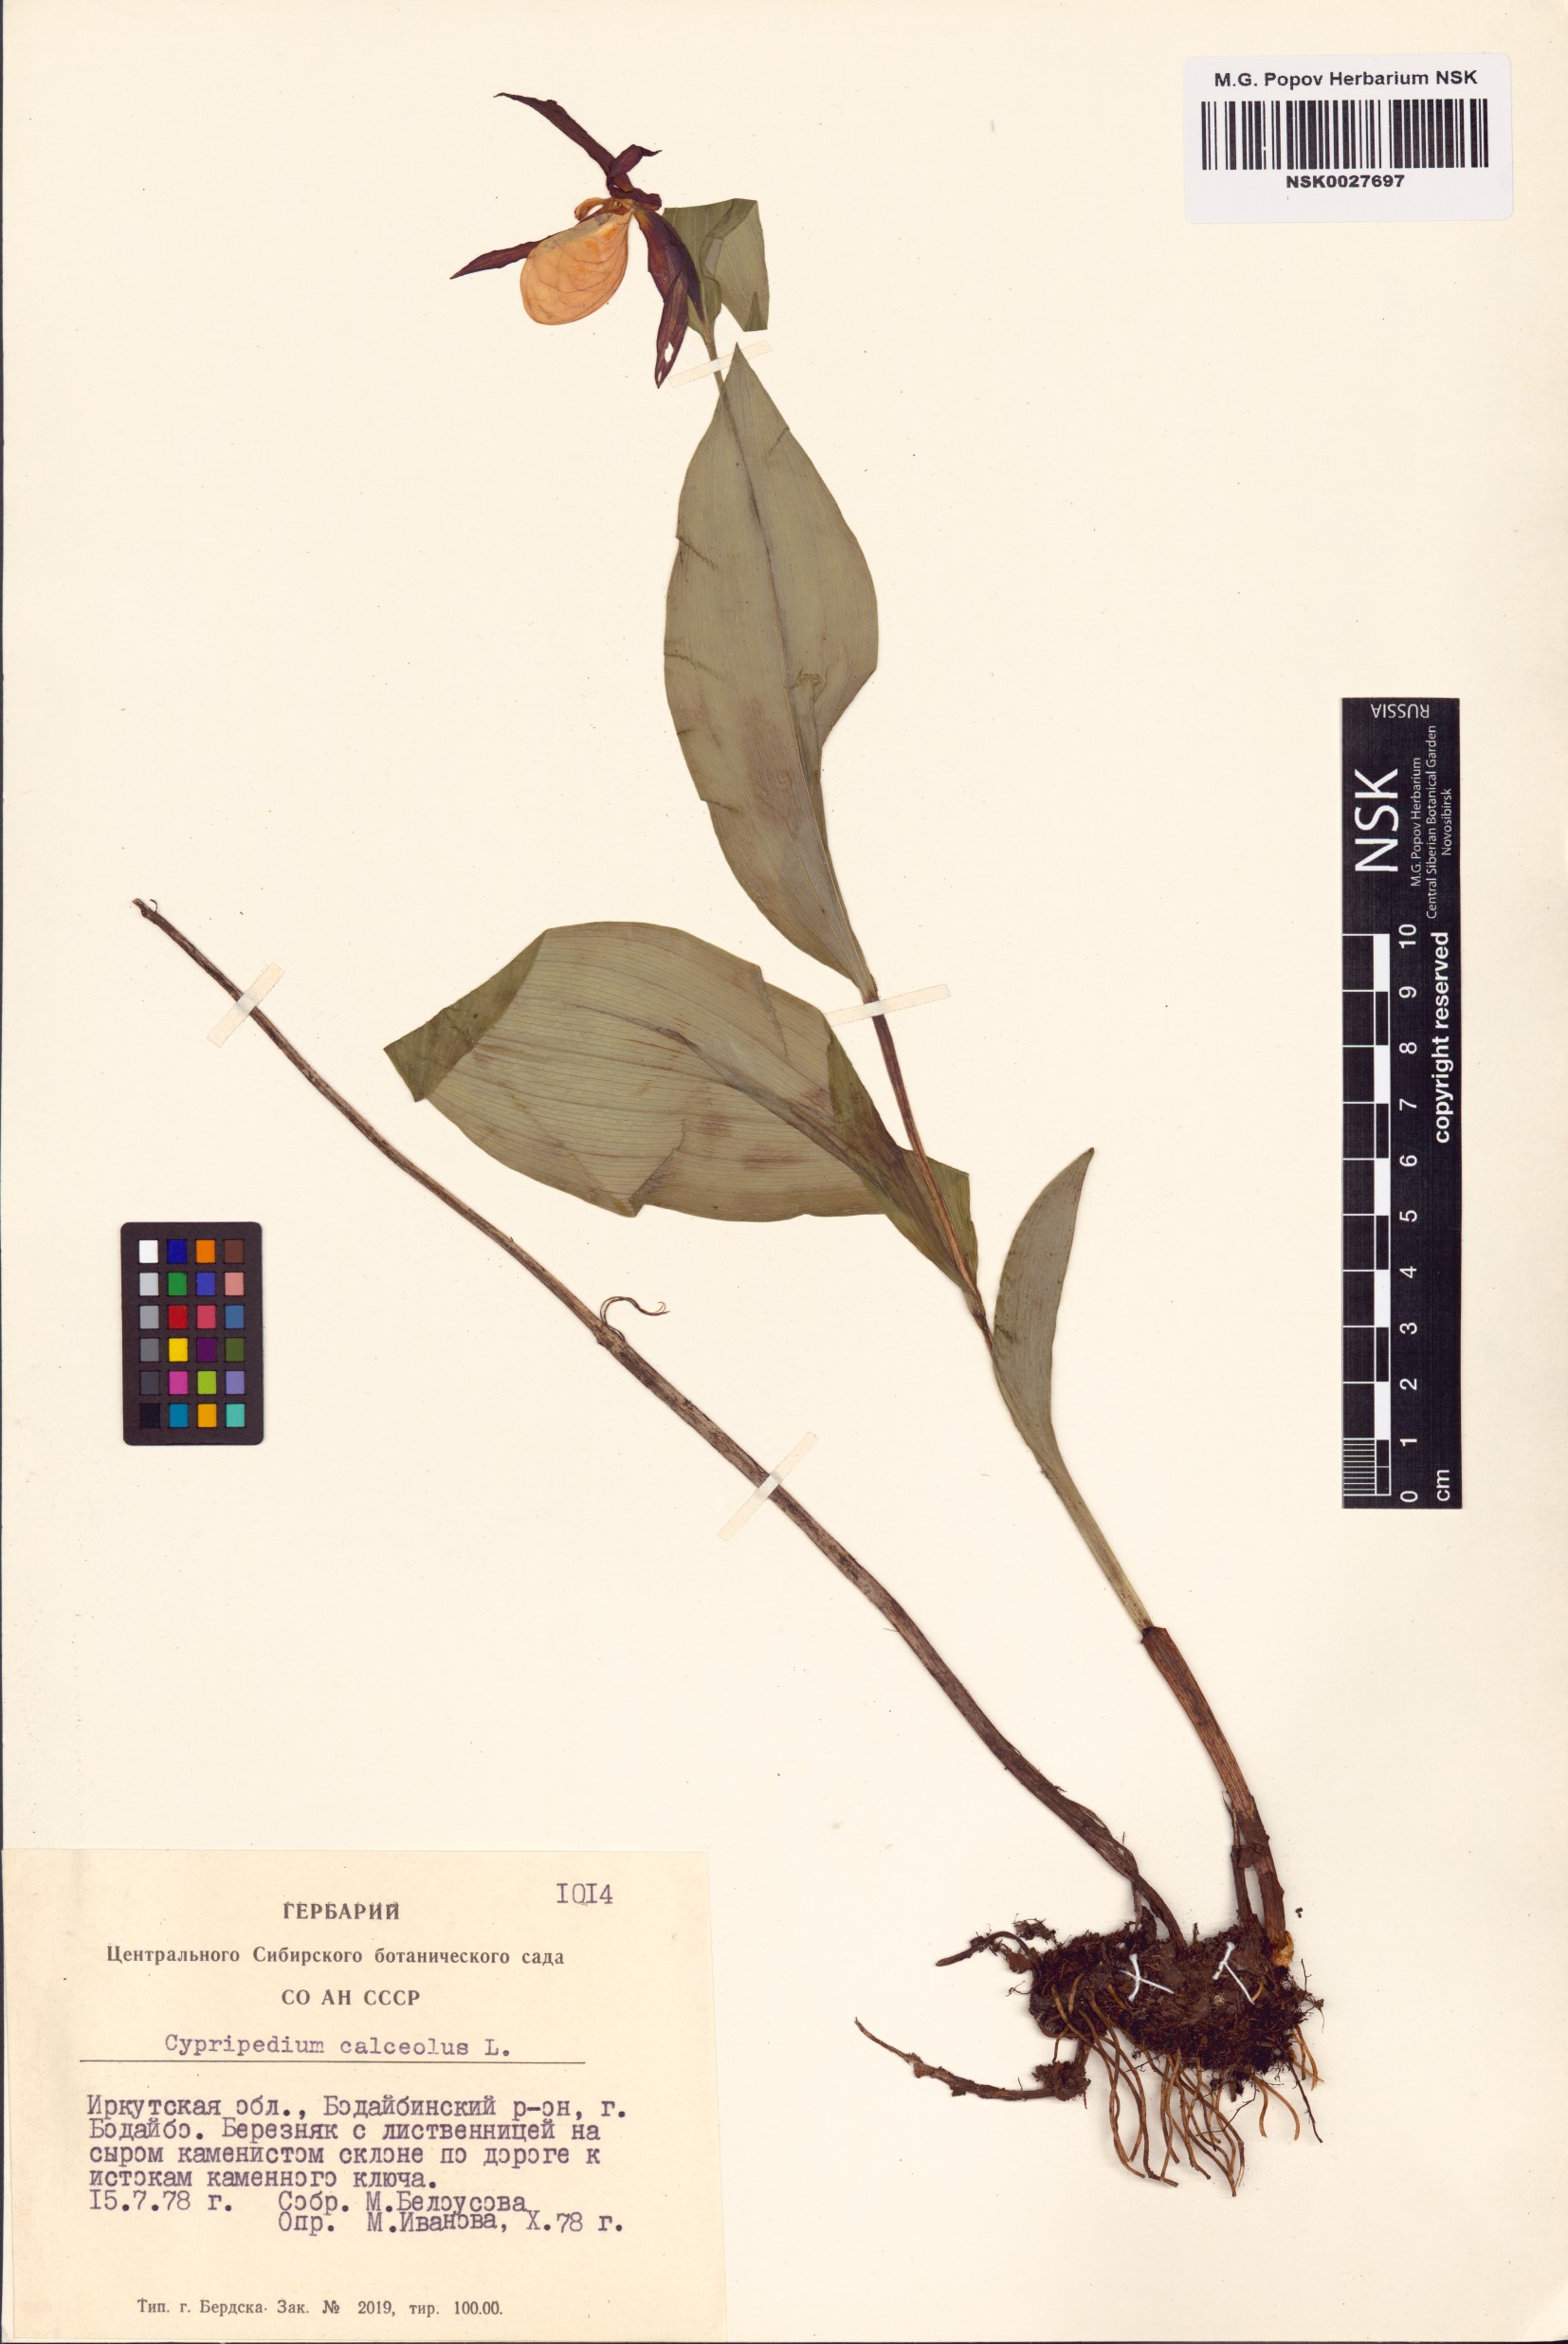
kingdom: Plantae
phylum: Tracheophyta
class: Liliopsida
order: Asparagales
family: Orchidaceae
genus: Cypripedium
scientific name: Cypripedium calceolus
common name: Lady's-slipper
